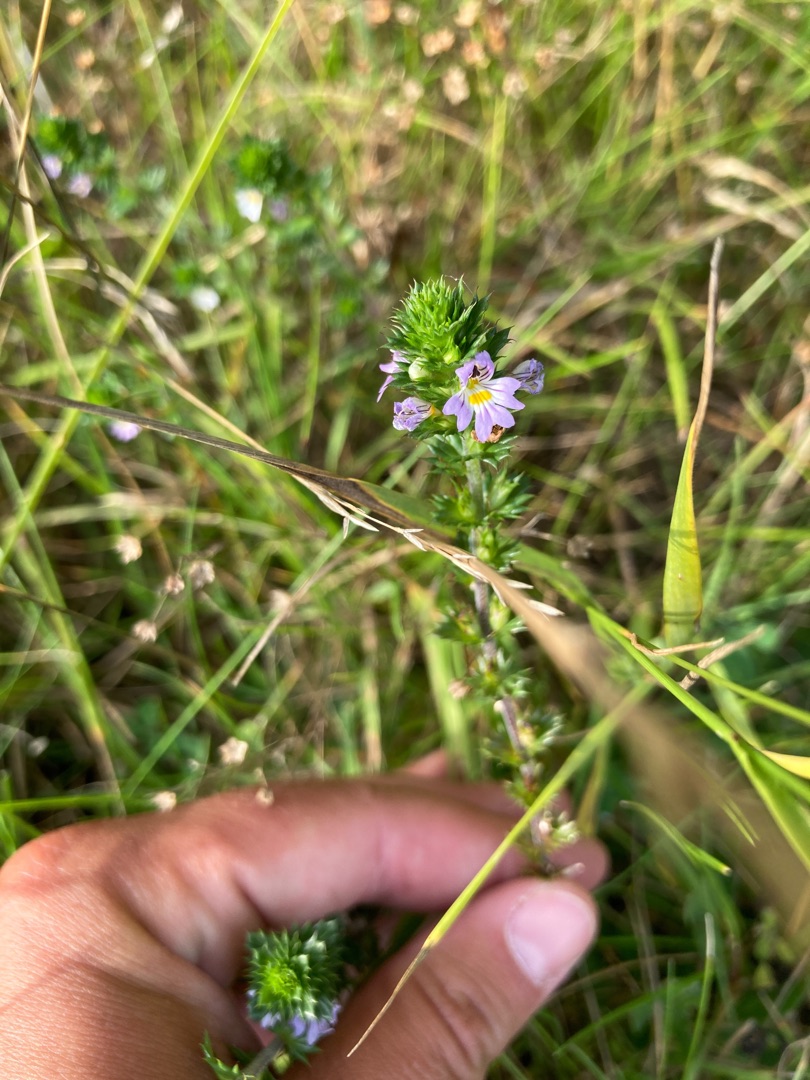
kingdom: Plantae
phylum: Tracheophyta
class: Magnoliopsida
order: Lamiales
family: Orobanchaceae
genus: Euphrasia
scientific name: Euphrasia stricta
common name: Spids øjentrøst
